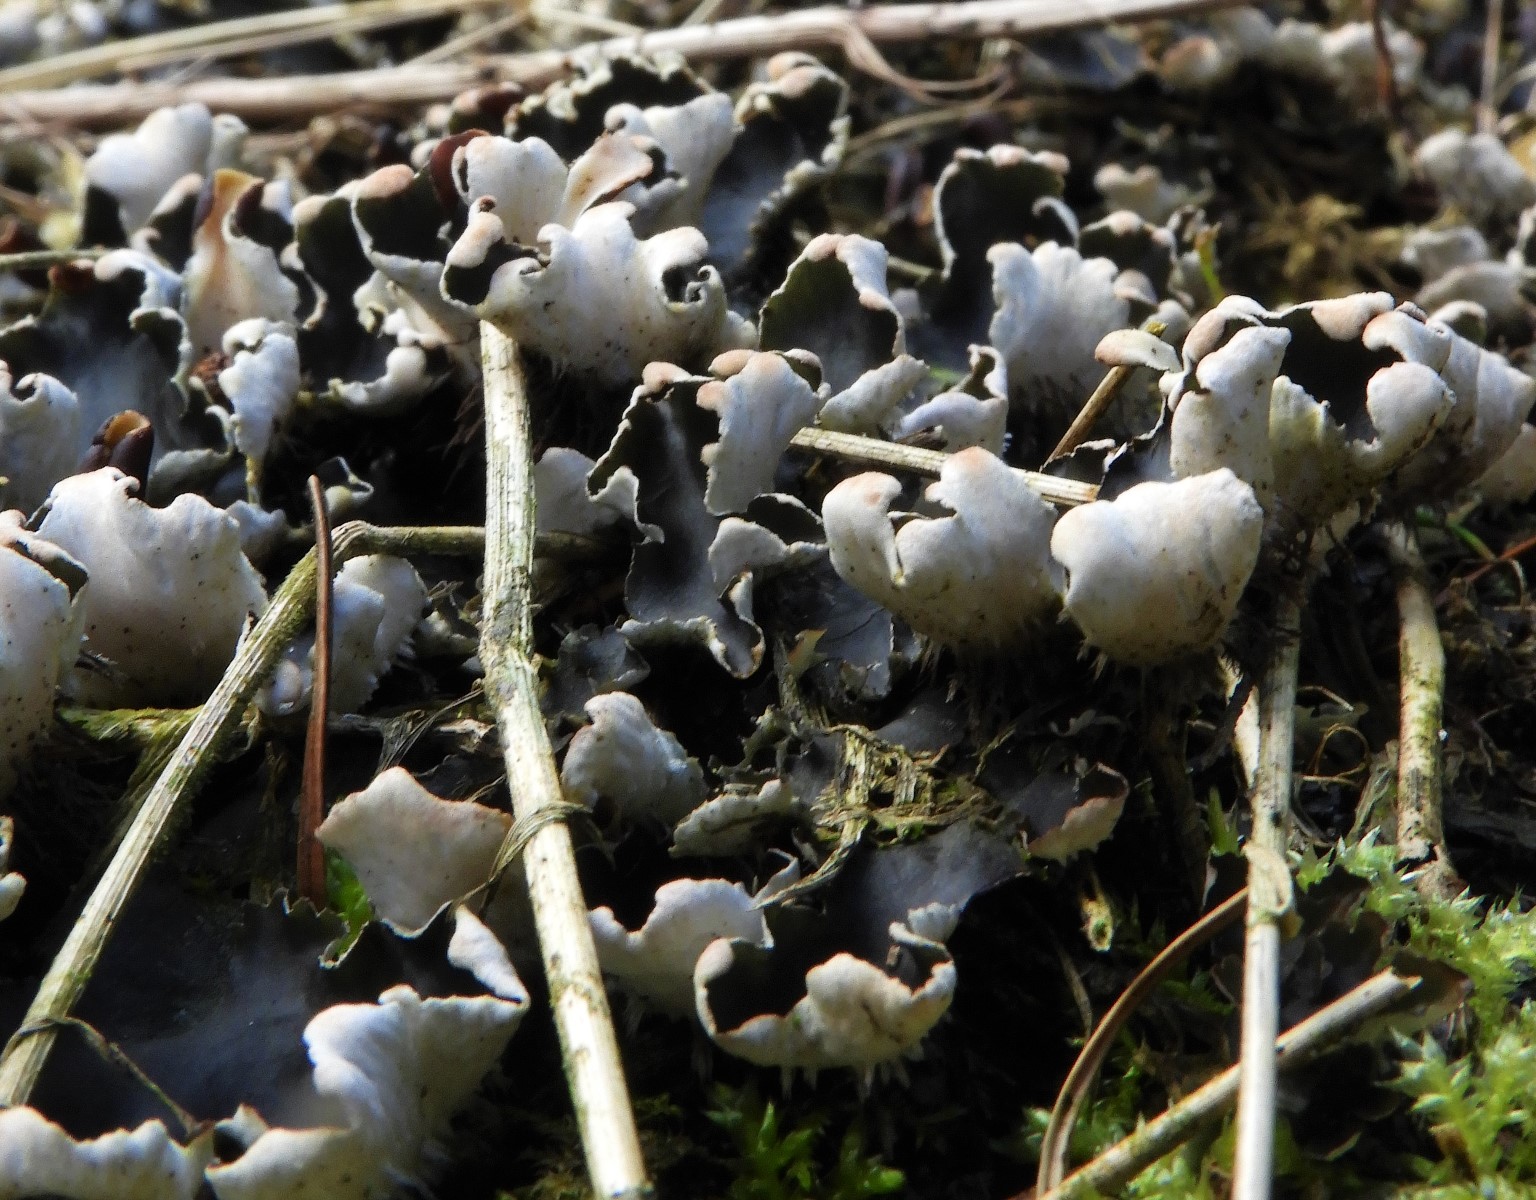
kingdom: Fungi
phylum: Ascomycota
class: Lecanoromycetes
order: Peltigerales
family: Peltigeraceae
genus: Peltigera
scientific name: Peltigera neckeri
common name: glinsende skjoldlav
